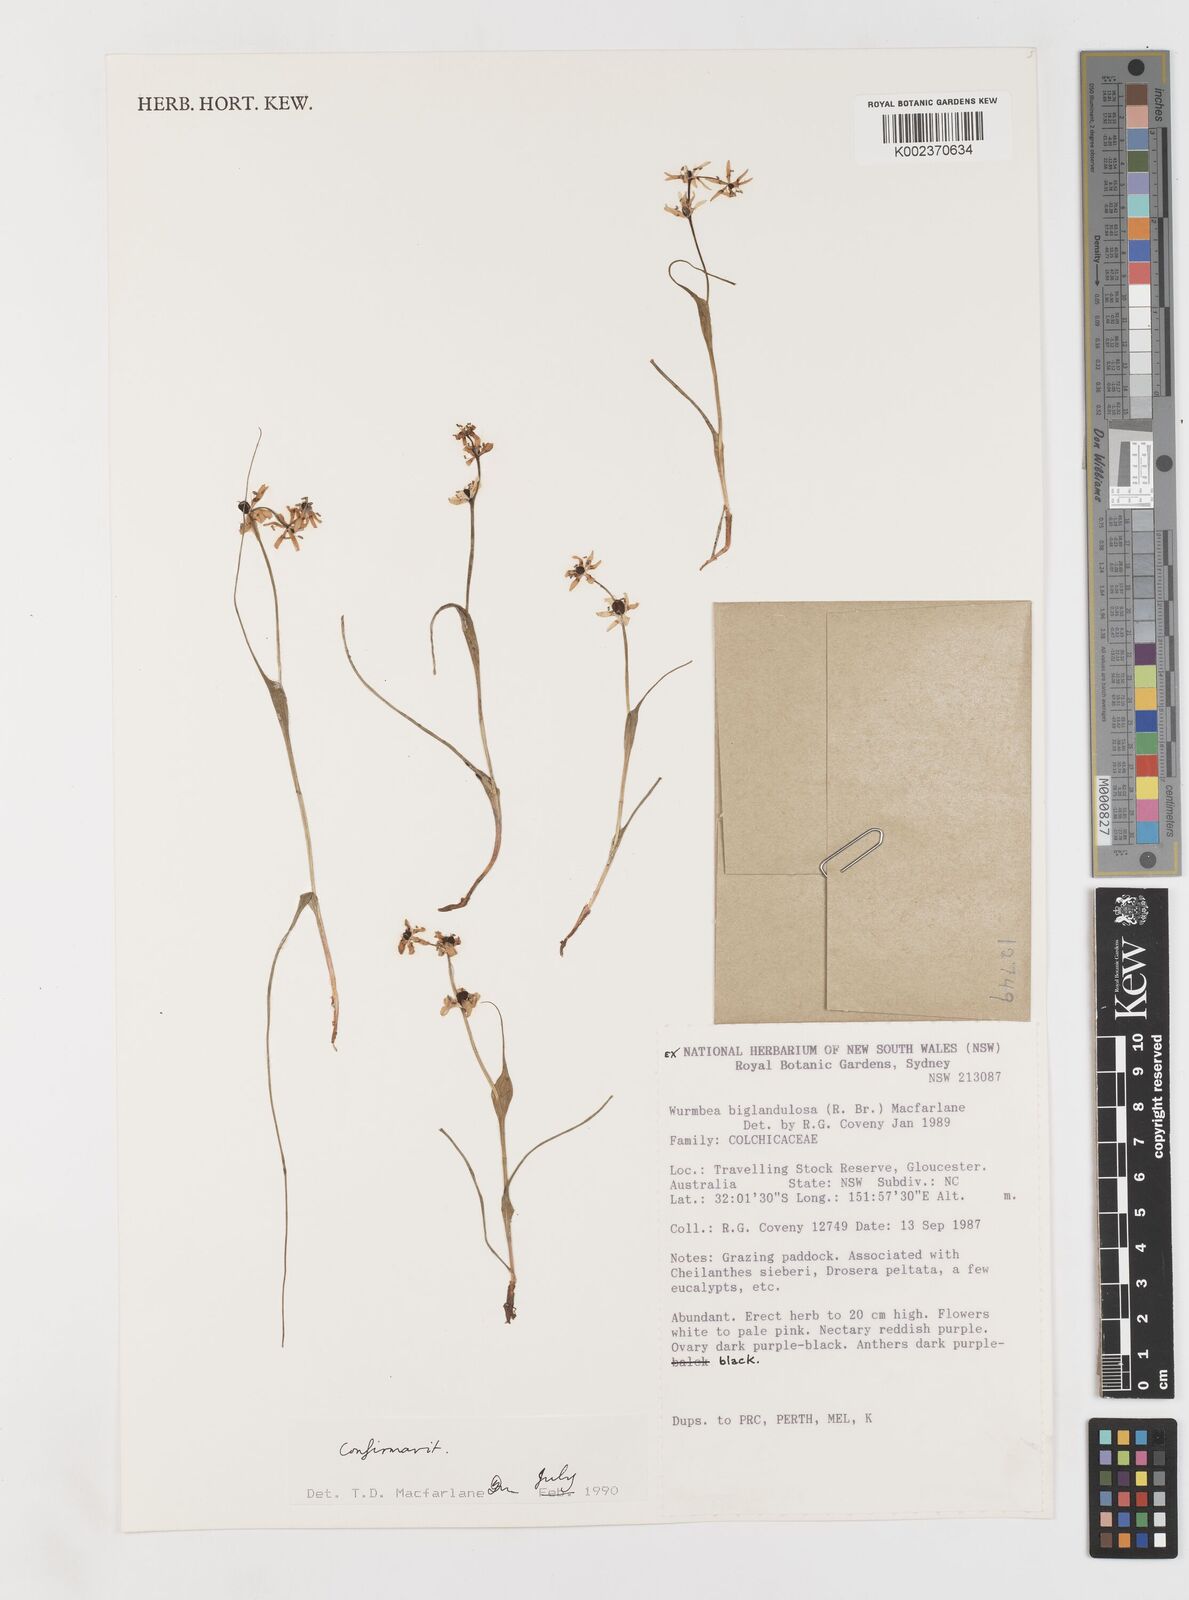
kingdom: Plantae
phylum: Tracheophyta
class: Liliopsida
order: Liliales
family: Colchicaceae
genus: Wurmbea
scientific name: Wurmbea biglandulosa
